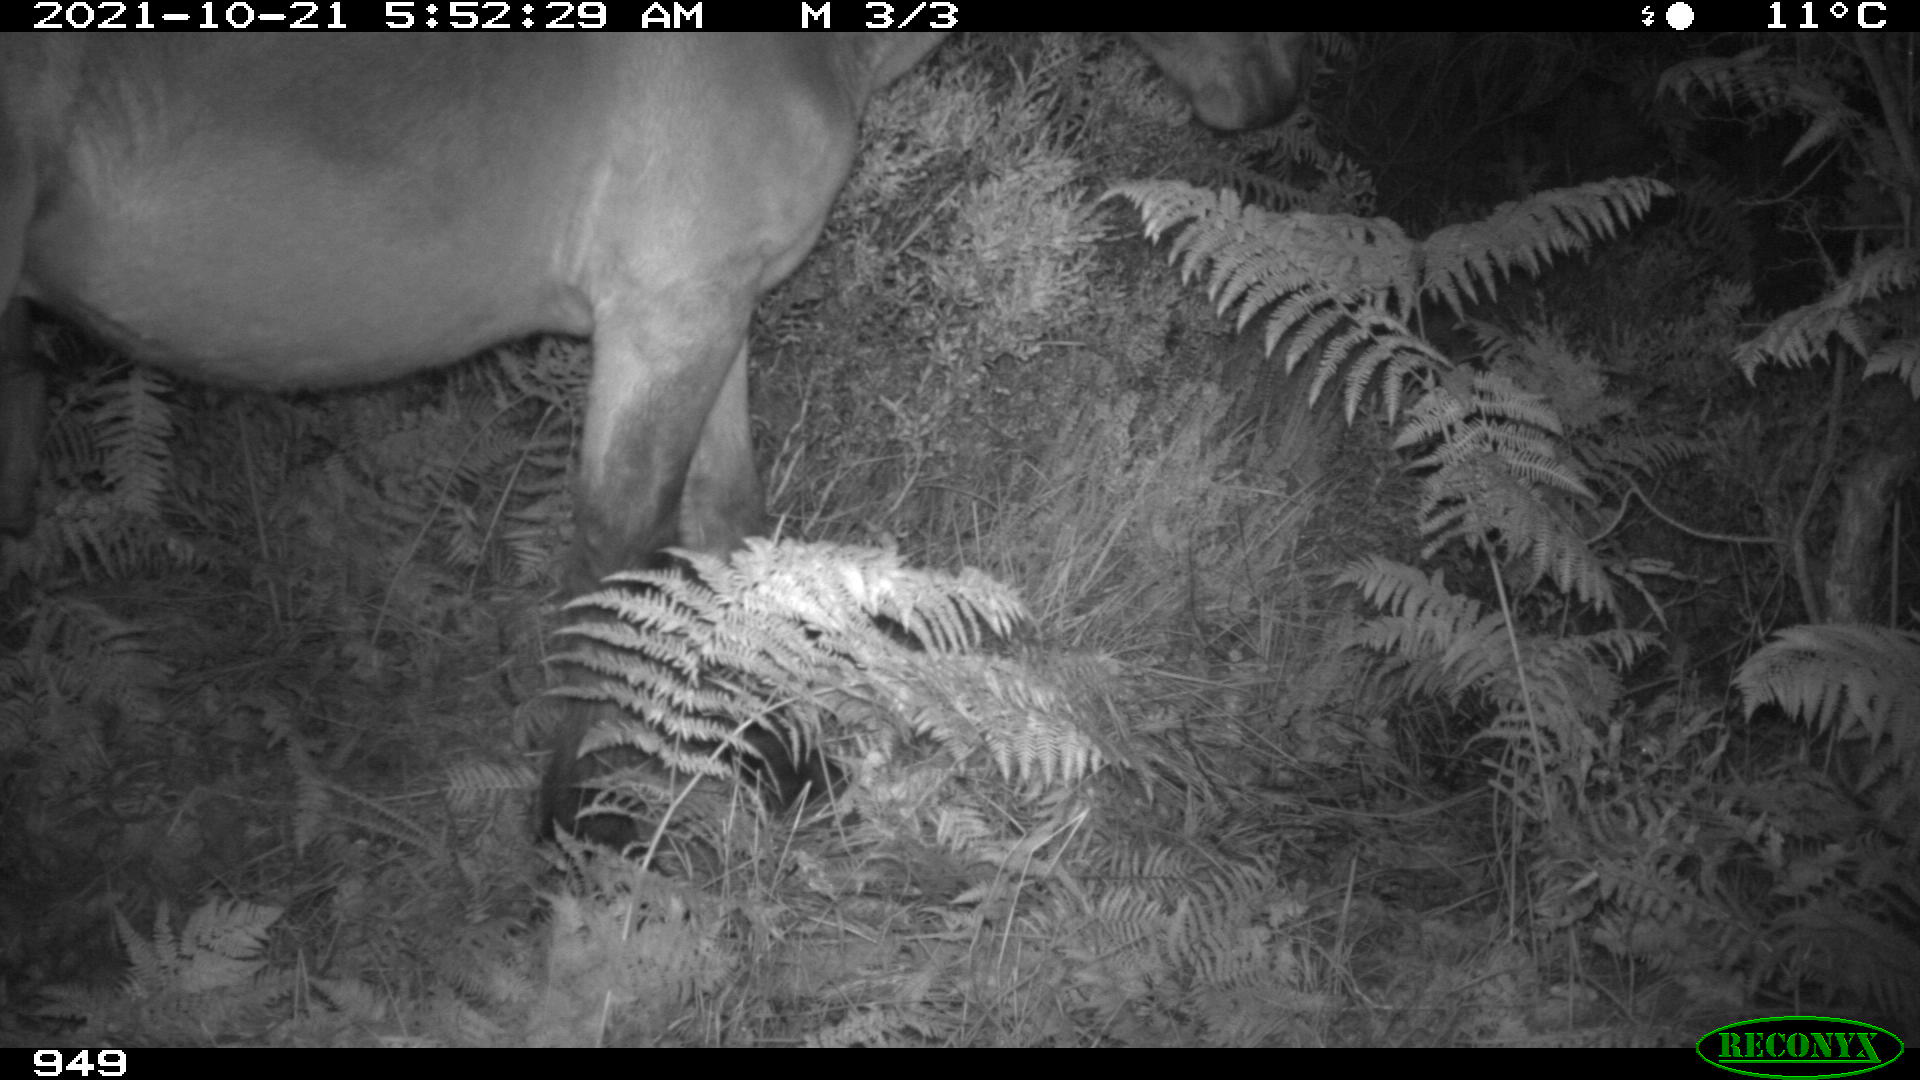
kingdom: Animalia
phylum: Chordata
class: Mammalia
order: Perissodactyla
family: Equidae
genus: Equus
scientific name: Equus caballus
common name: Horse
